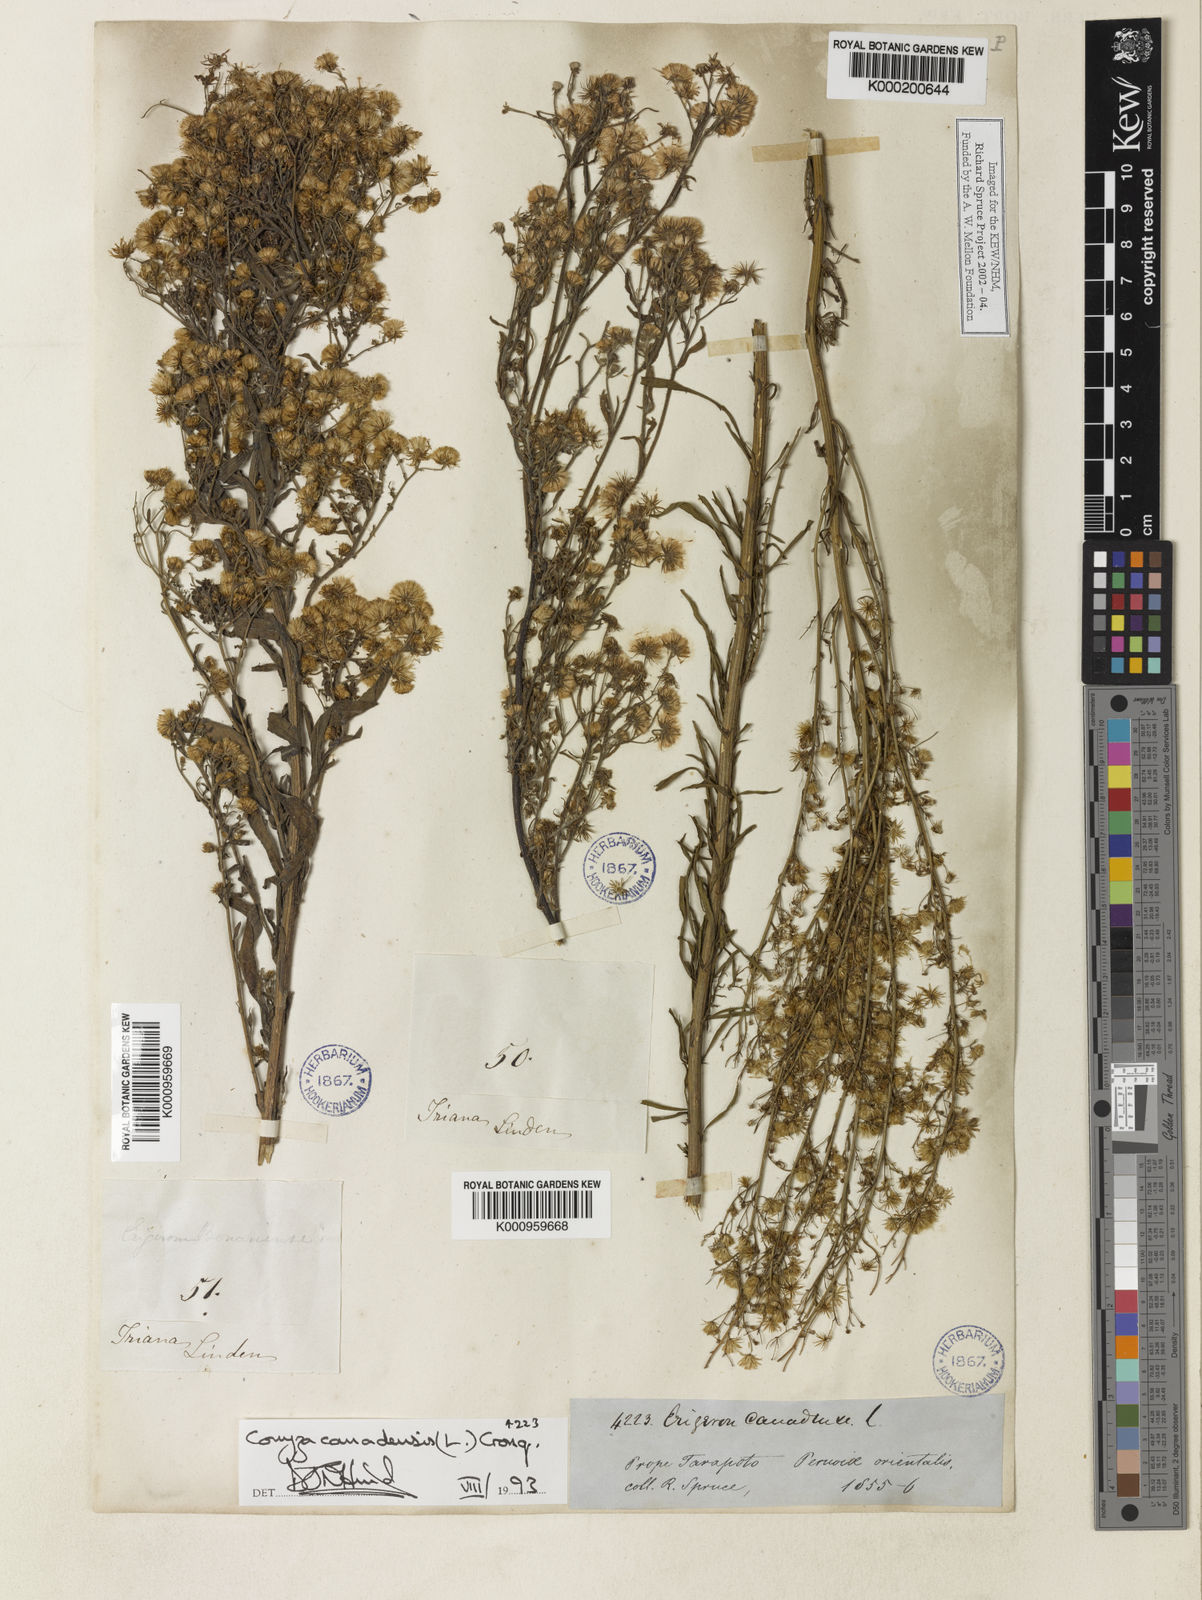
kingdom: Plantae
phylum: Tracheophyta
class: Magnoliopsida
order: Asterales
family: Asteraceae
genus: Erigeron
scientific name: Erigeron canadensis
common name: Canadian fleabane
